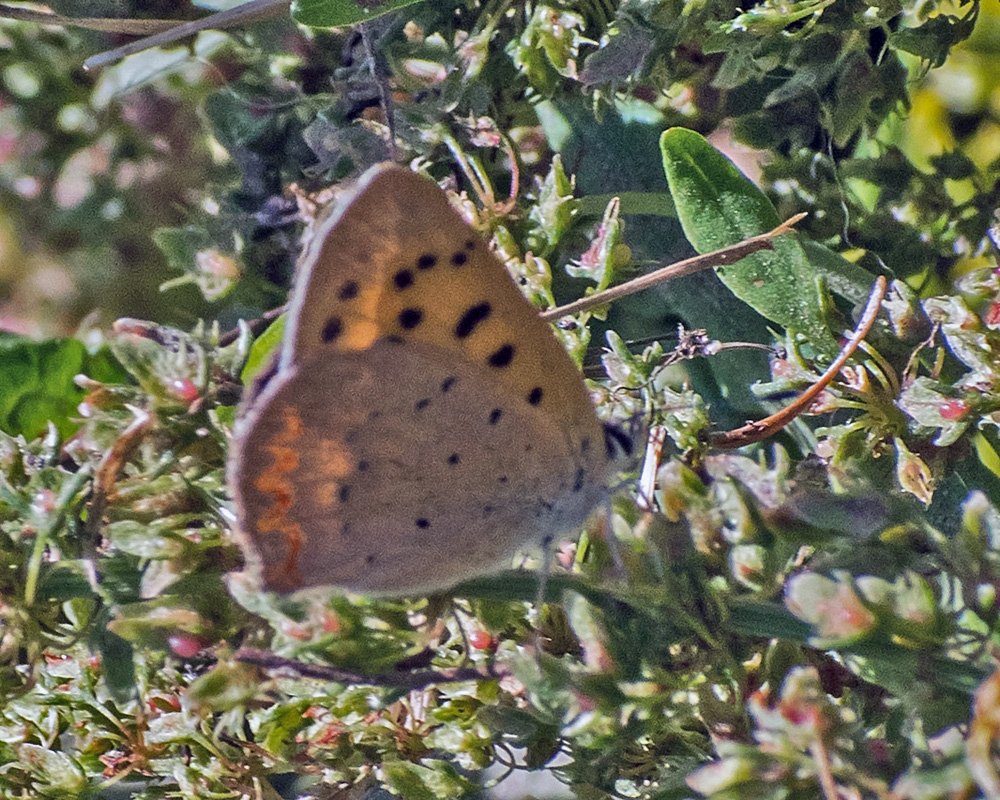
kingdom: Animalia
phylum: Arthropoda
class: Insecta
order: Lepidoptera
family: Sesiidae
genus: Sesia
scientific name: Sesia Lycaena helloides
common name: Purplish Copper
